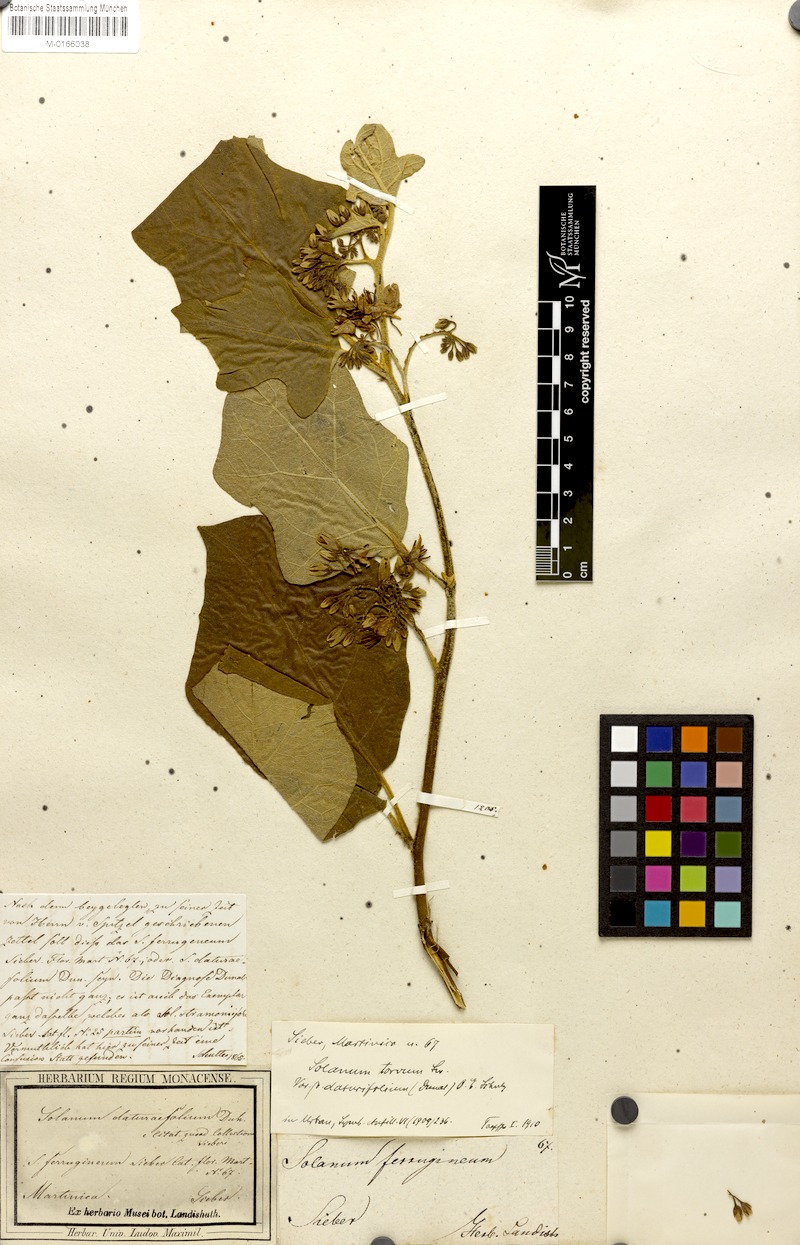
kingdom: Plantae
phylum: Tracheophyta
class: Magnoliopsida
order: Solanales
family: Solanaceae
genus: Solanum
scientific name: Solanum torvum
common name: Turkey berry
